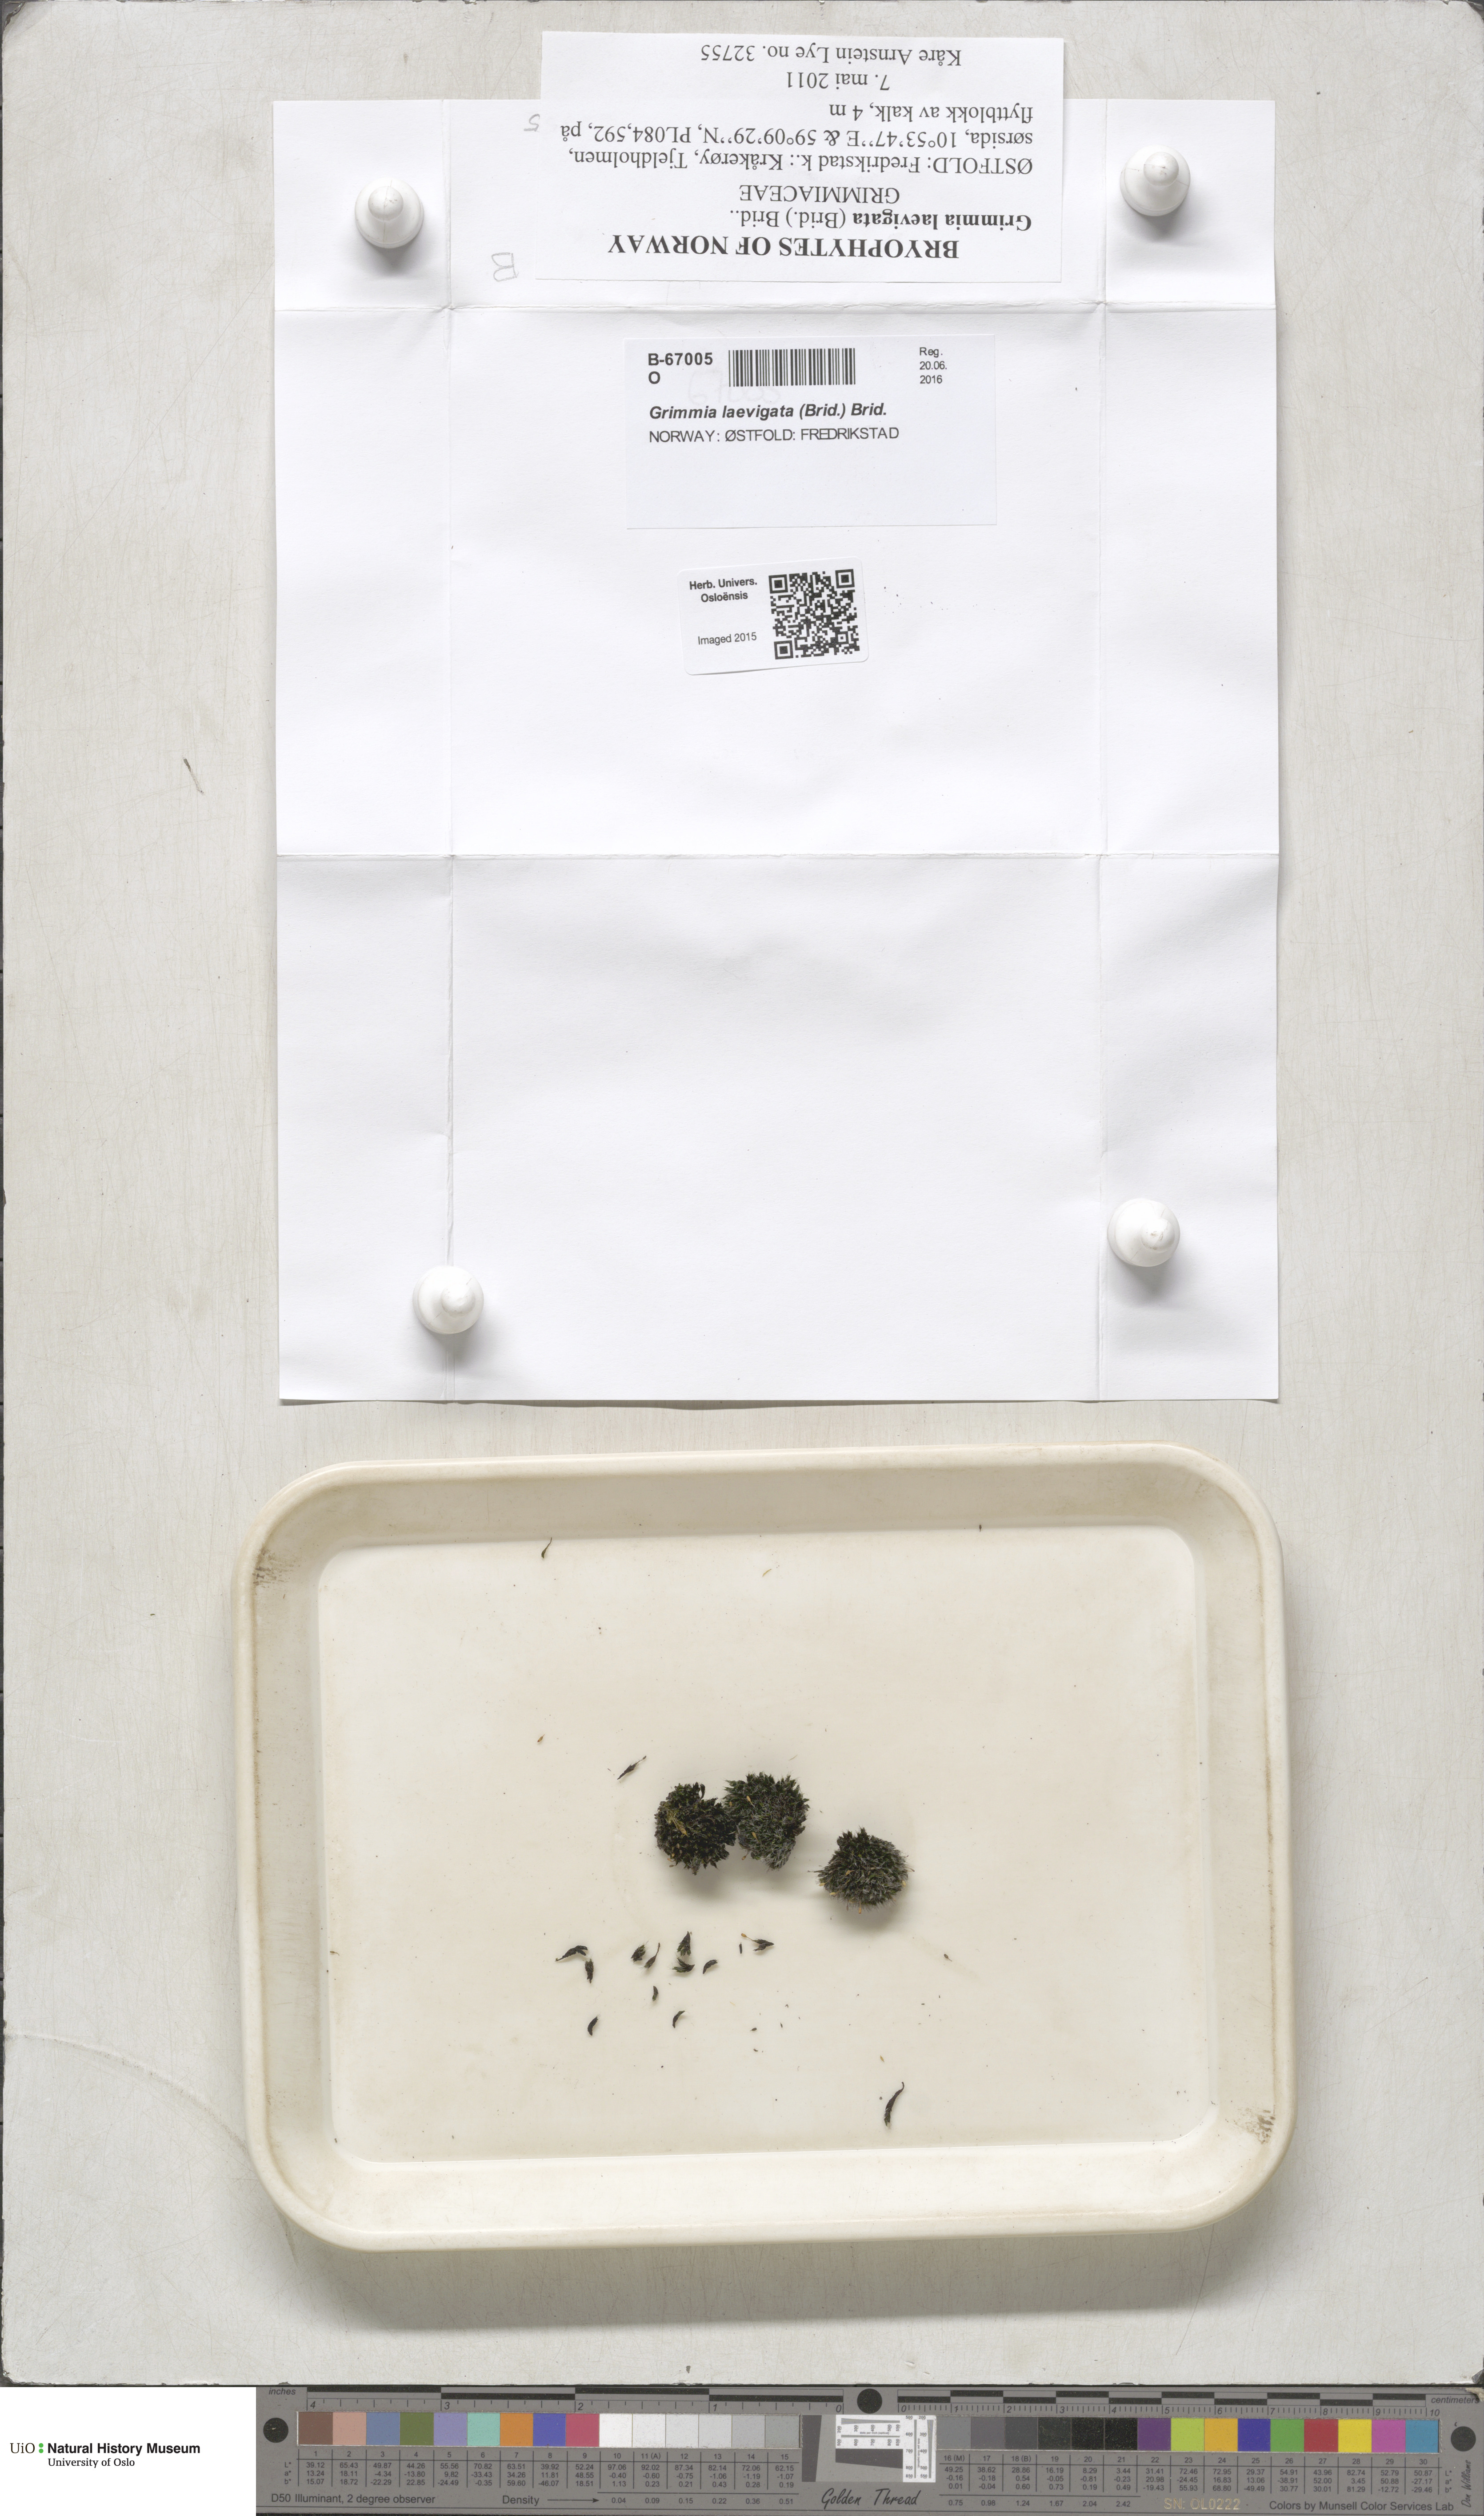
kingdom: Plantae
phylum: Bryophyta
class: Bryopsida
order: Grimmiales
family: Grimmiaceae
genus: Grimmia
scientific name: Grimmia laevigata
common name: Hoary grimmia
